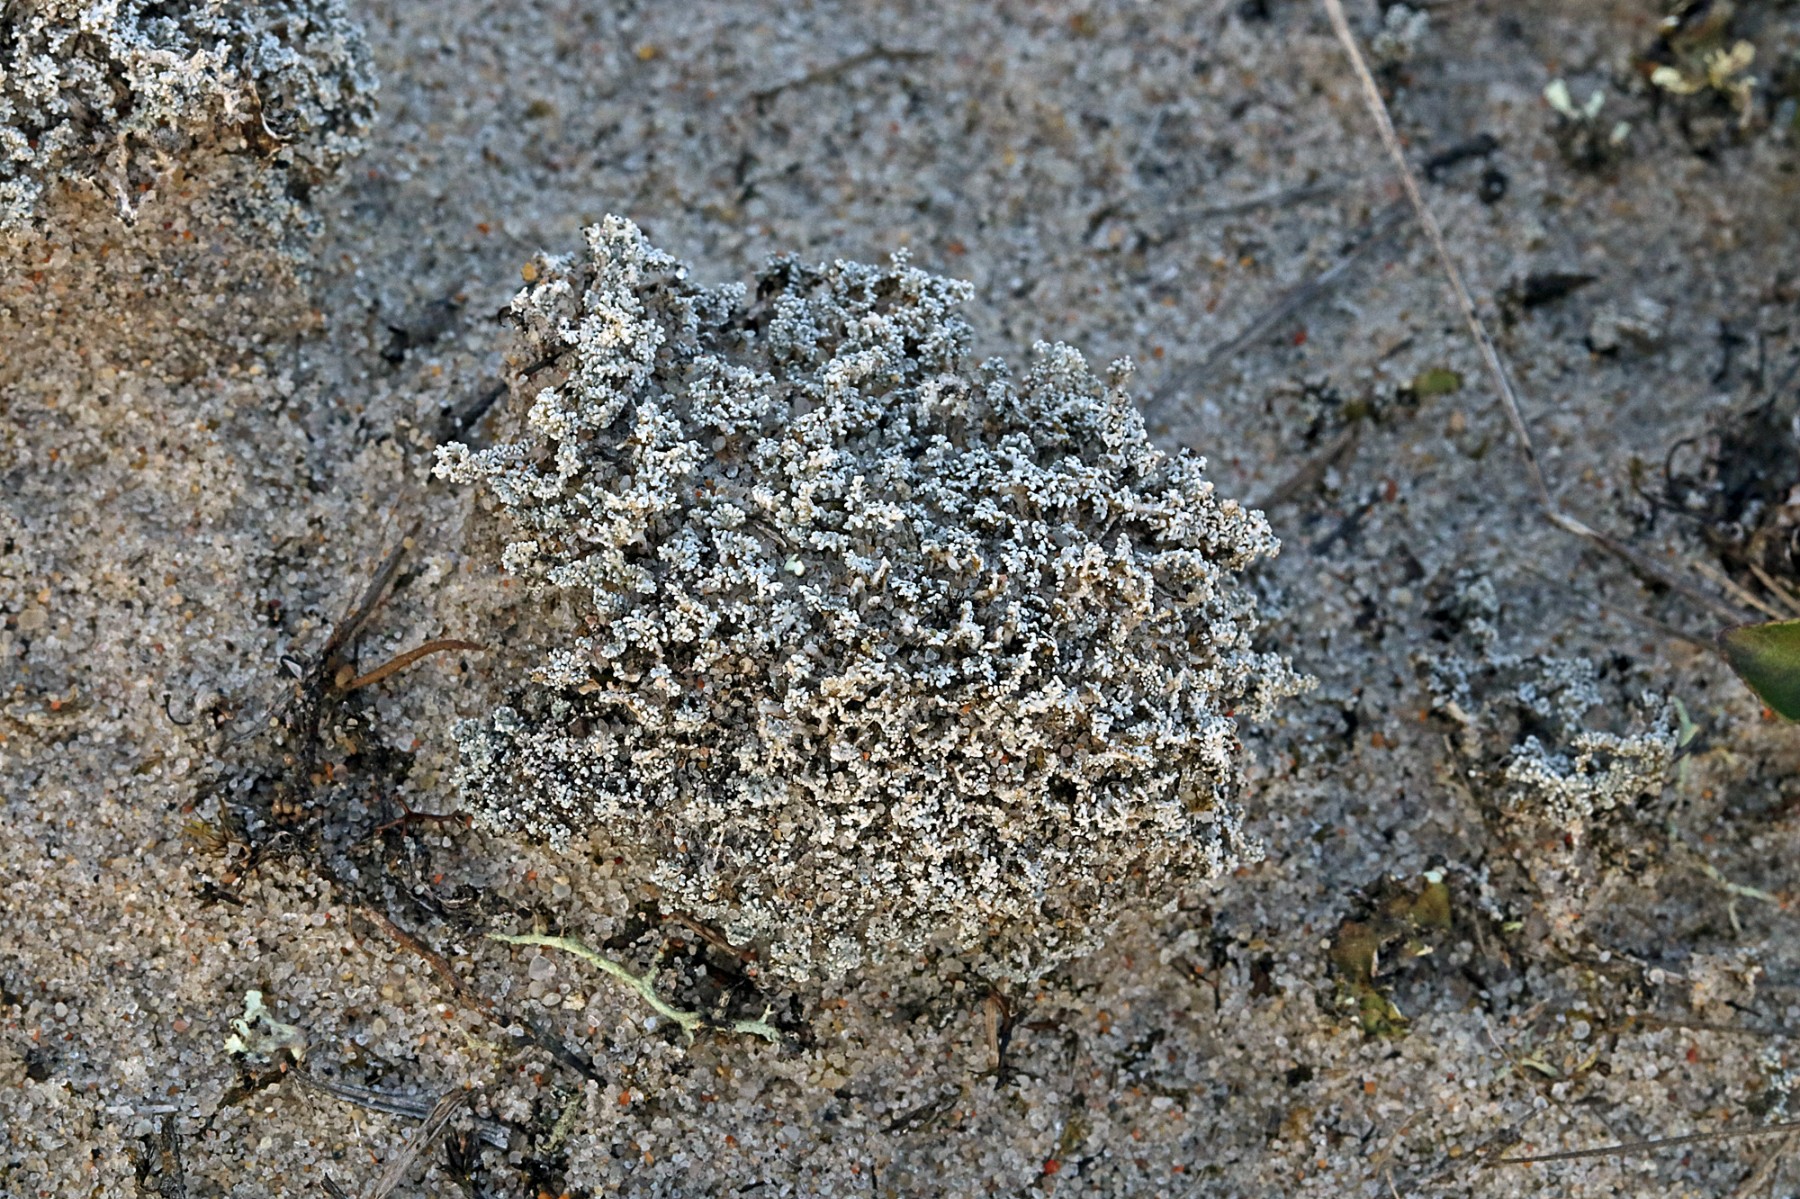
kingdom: Fungi
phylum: Ascomycota
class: Lecanoromycetes
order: Lecanorales
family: Stereocaulaceae
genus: Stereocaulon
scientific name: Stereocaulon condensatum
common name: lav korallav
